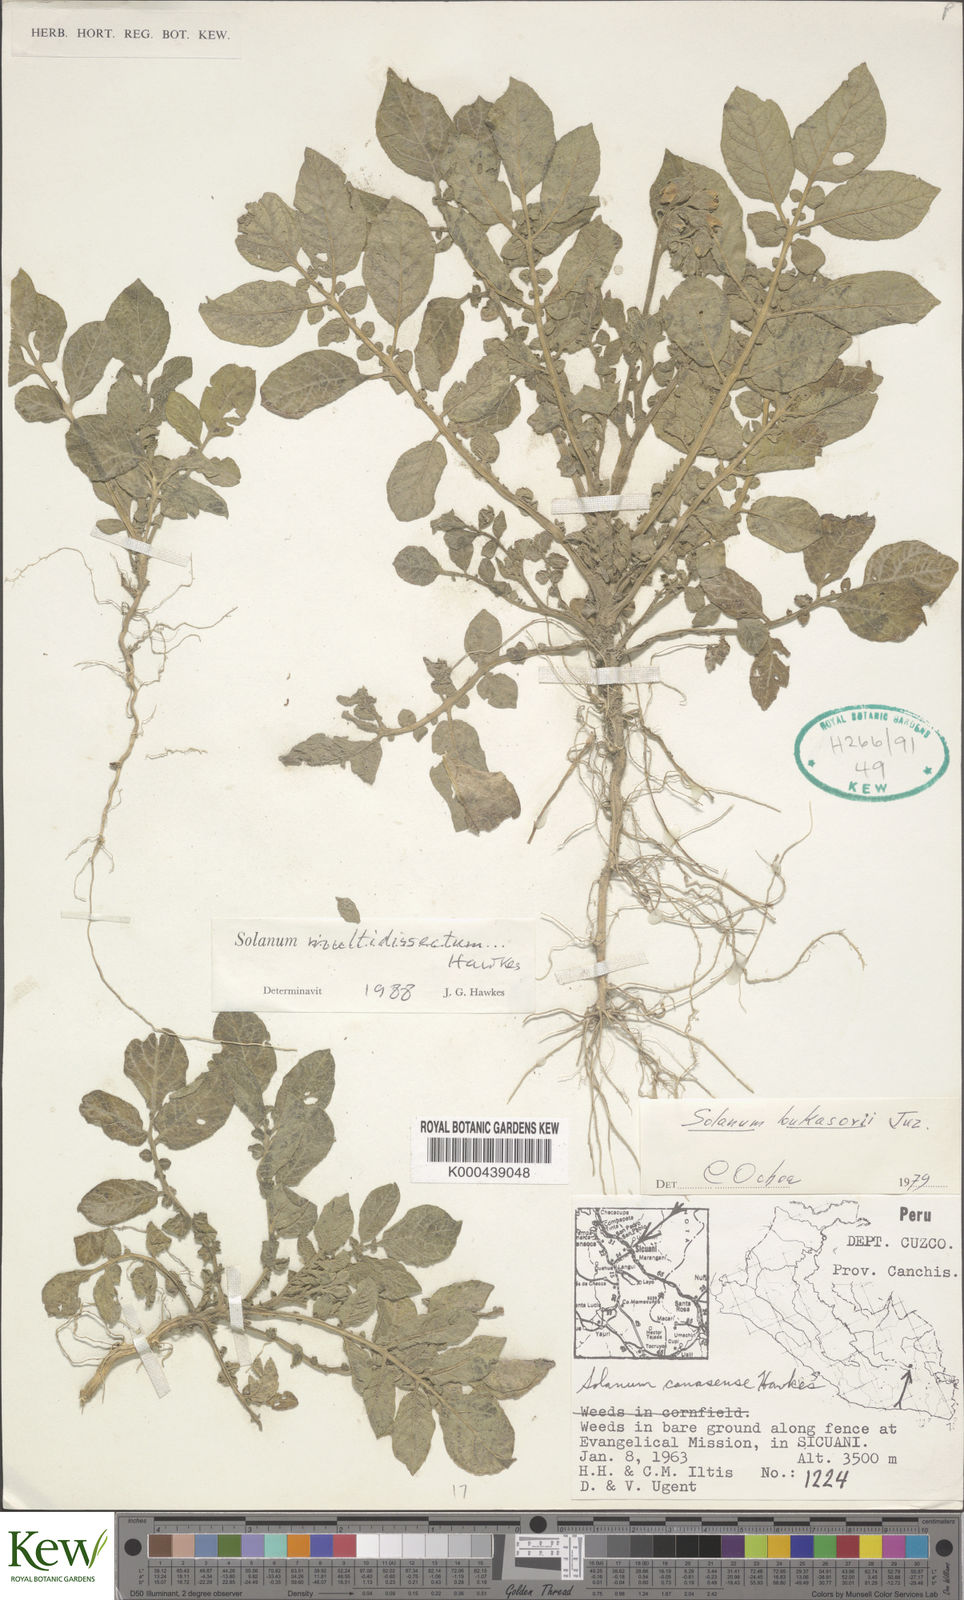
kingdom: Plantae
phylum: Tracheophyta
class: Magnoliopsida
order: Solanales
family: Solanaceae
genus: Solanum
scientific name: Solanum candolleanum
